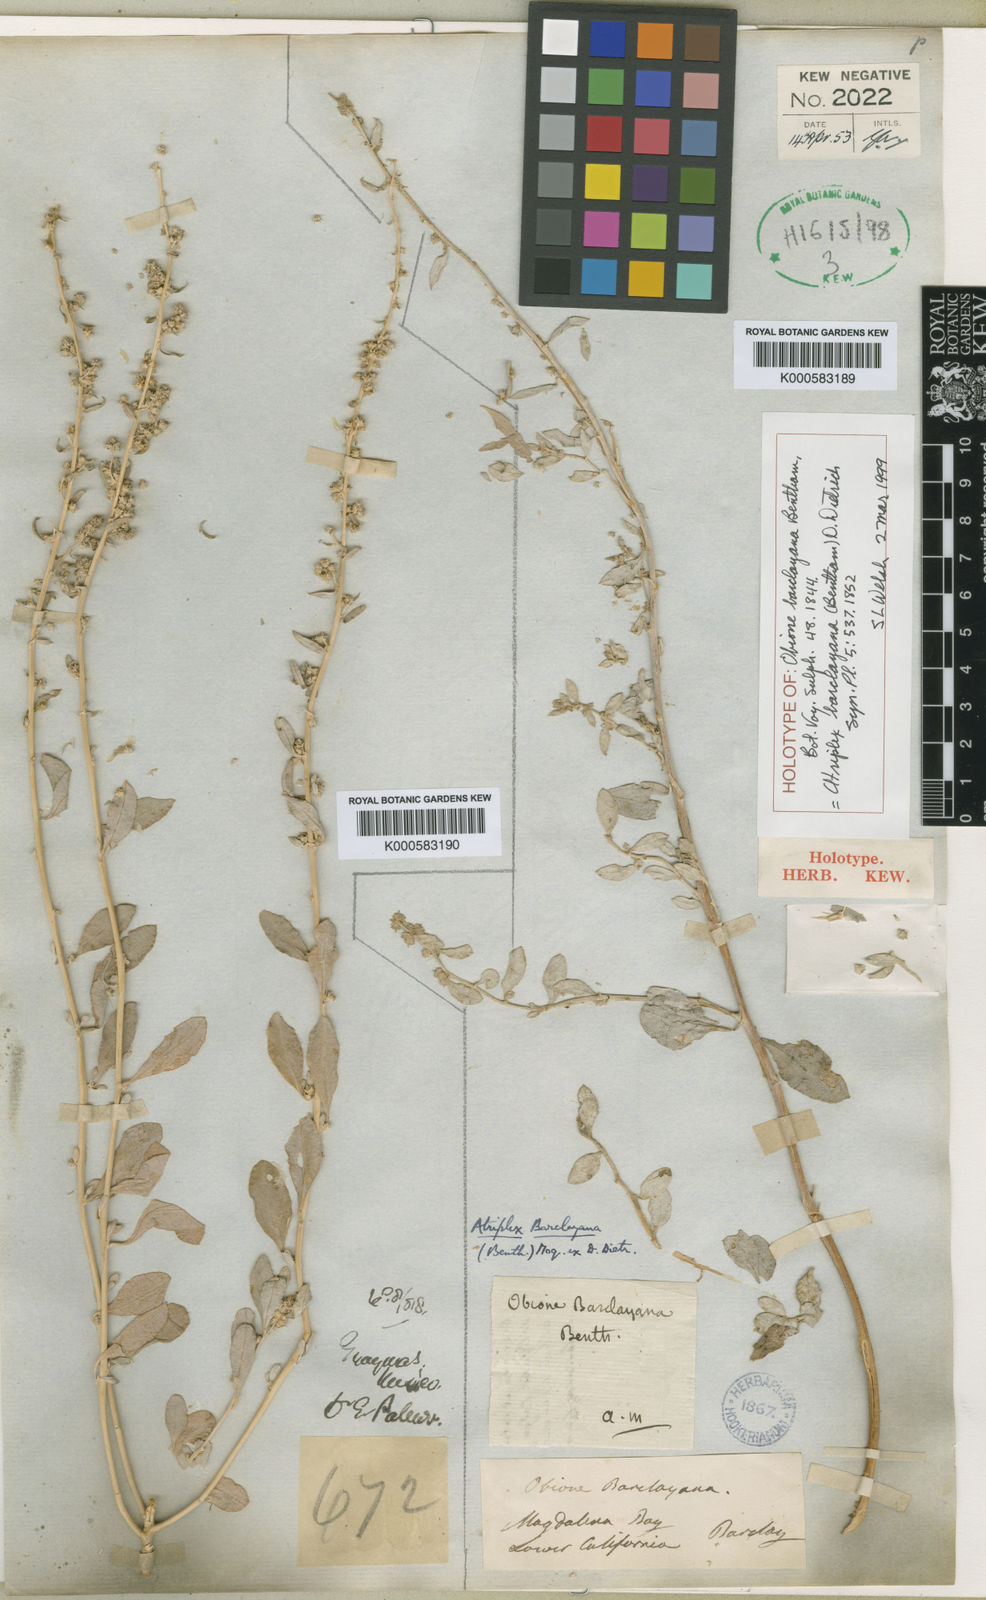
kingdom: Plantae
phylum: Tracheophyta
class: Magnoliopsida
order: Caryophyllales
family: Amaranthaceae
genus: Atriplex
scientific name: Atriplex barclayana
